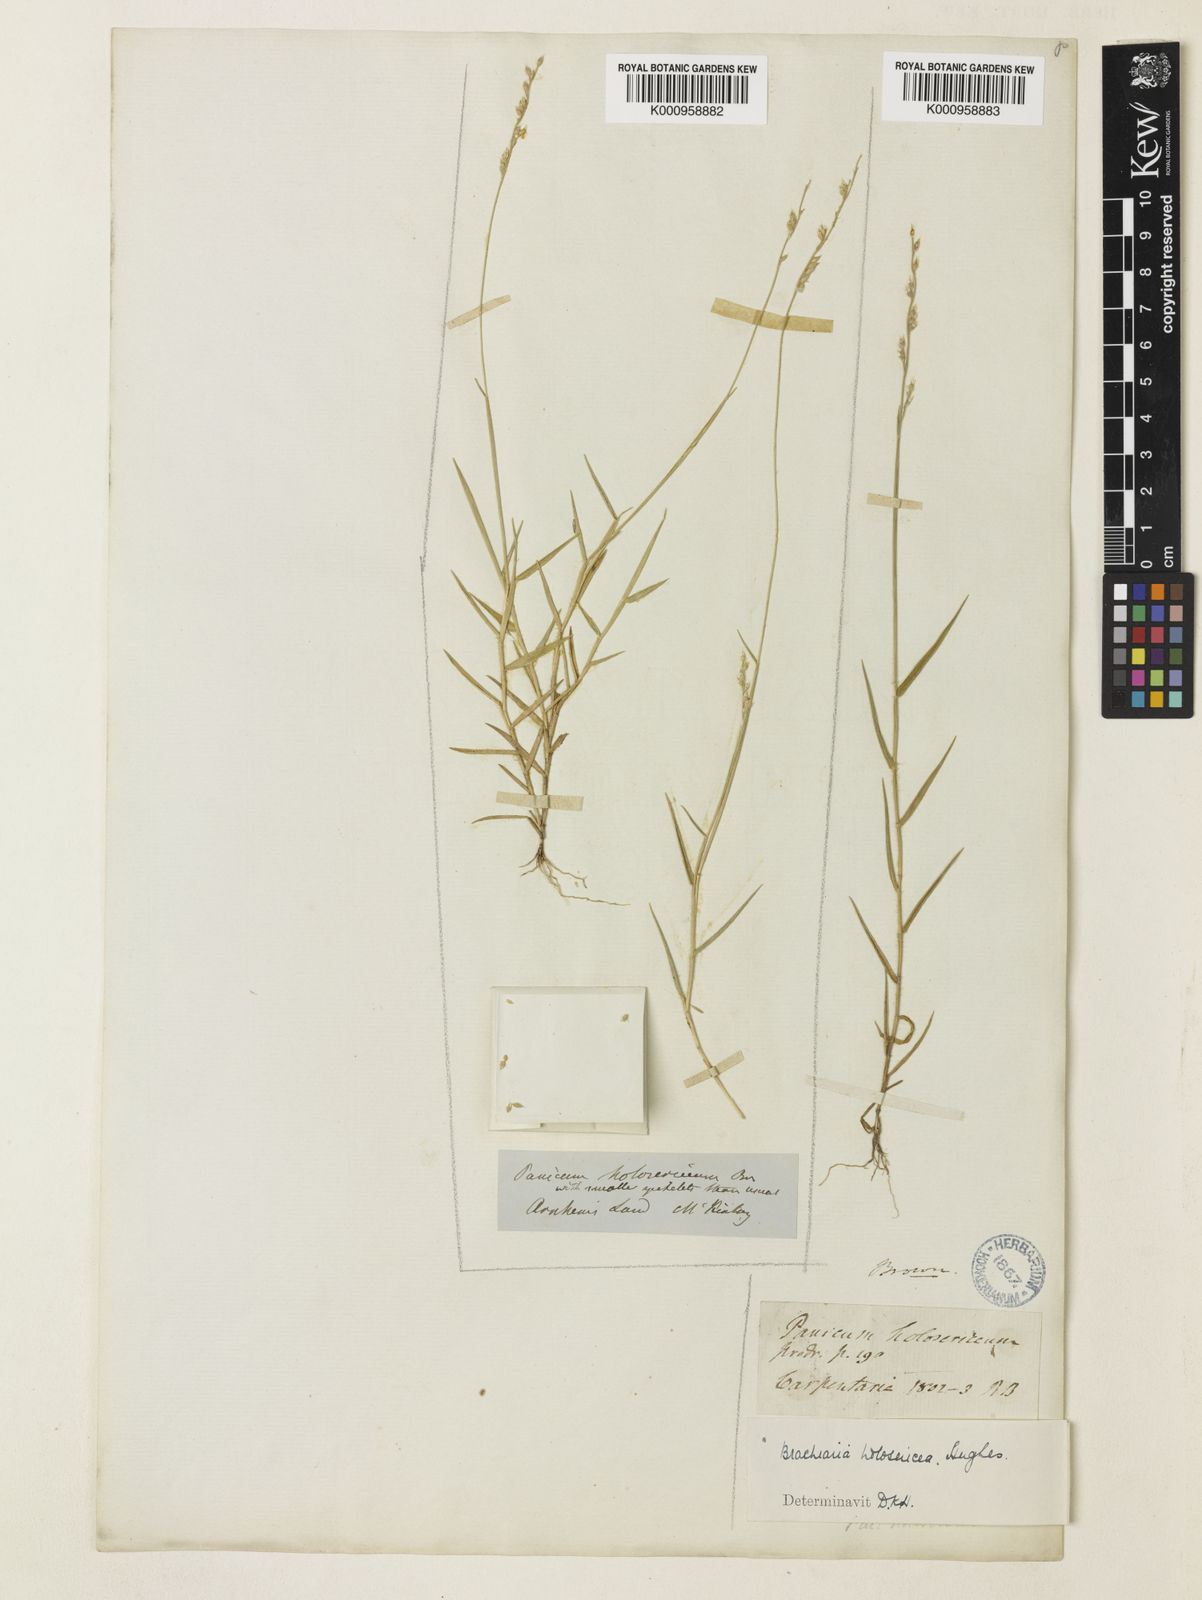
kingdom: Plantae
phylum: Tracheophyta
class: Liliopsida
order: Poales
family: Poaceae
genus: Urochloa
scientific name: Urochloa holosericea
